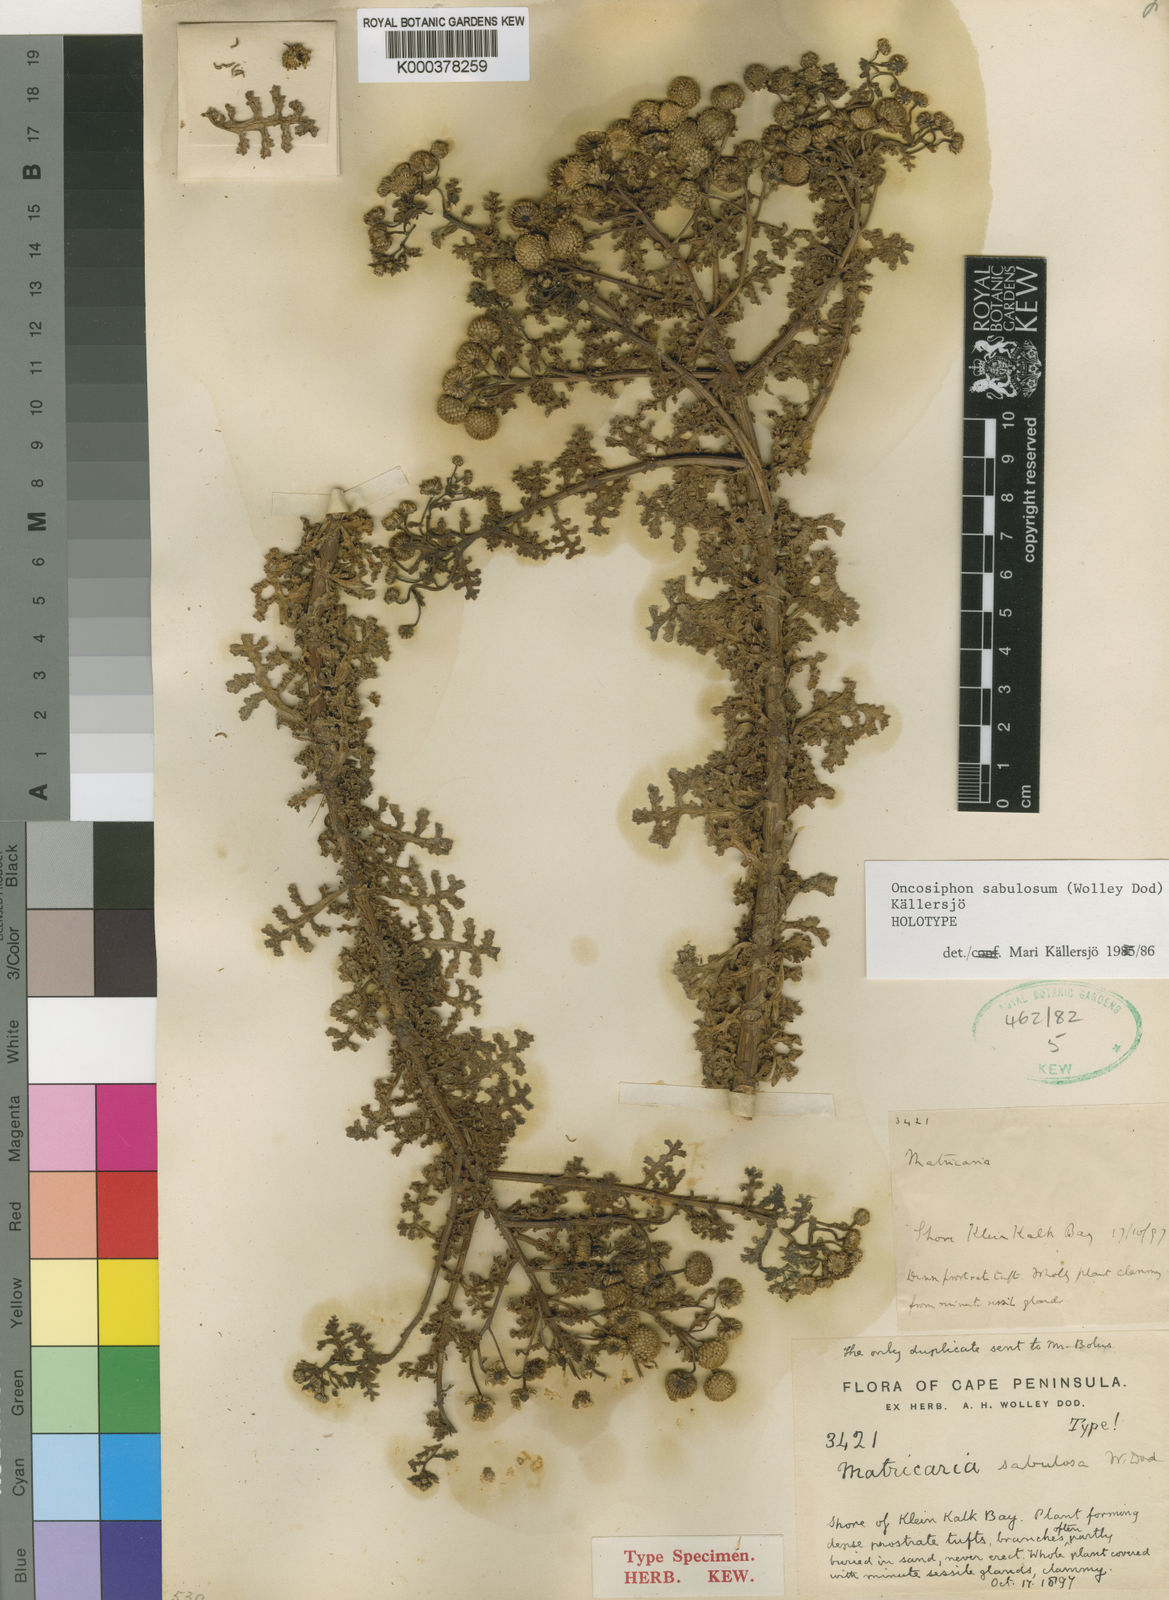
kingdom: Plantae
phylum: Tracheophyta
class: Magnoliopsida
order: Asterales
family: Asteraceae
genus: Oncosiphon
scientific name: Oncosiphon
